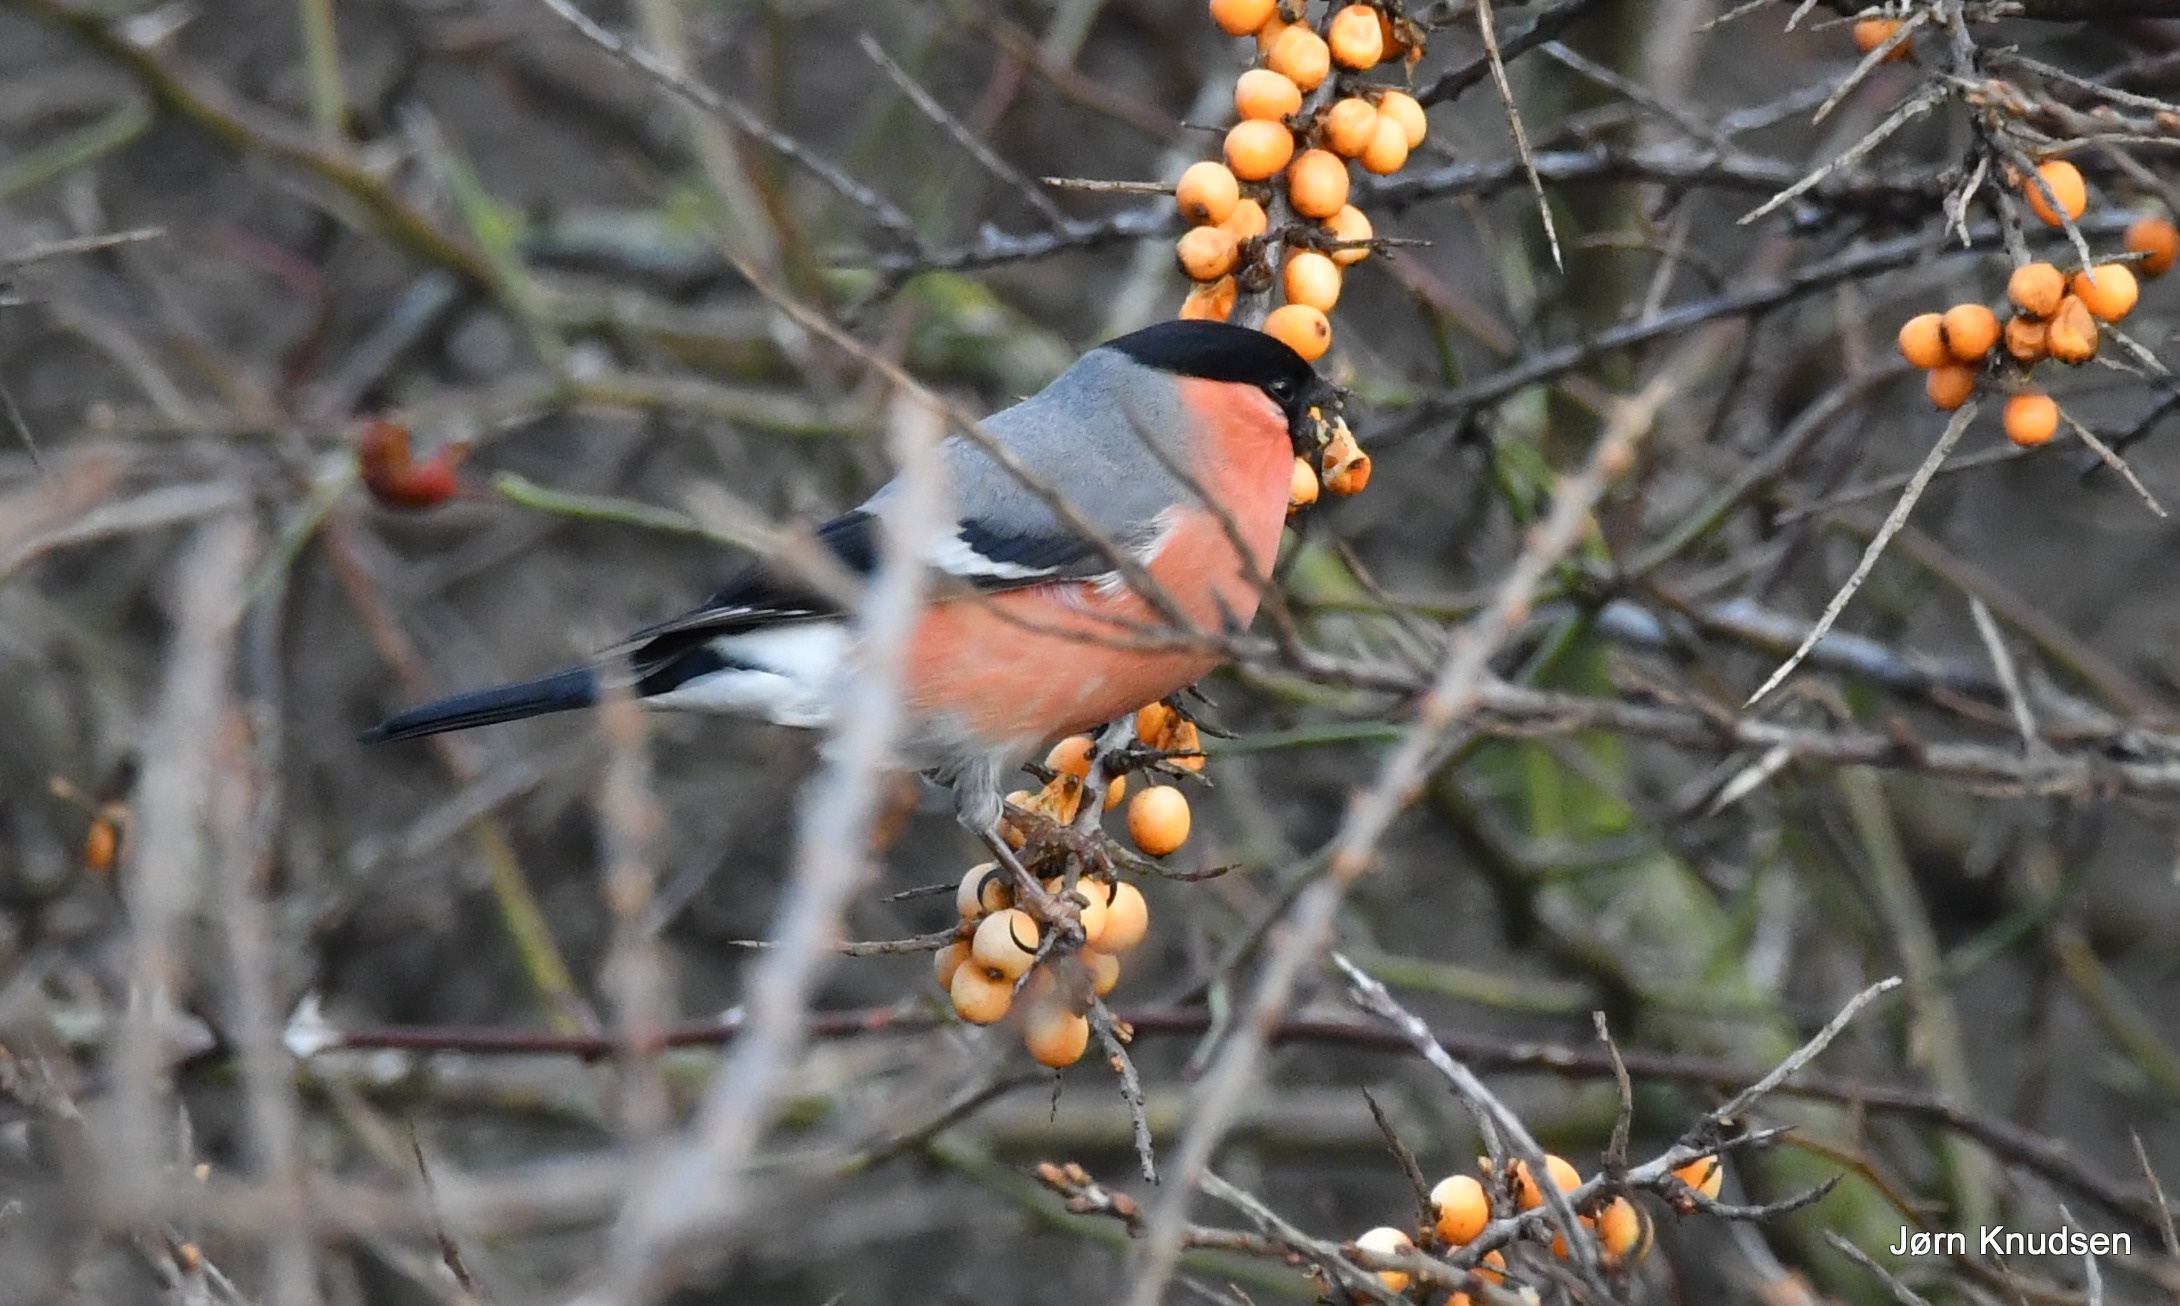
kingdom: Animalia
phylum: Chordata
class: Aves
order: Passeriformes
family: Fringillidae
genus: Pyrrhula
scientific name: Pyrrhula pyrrhula
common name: Dompap
